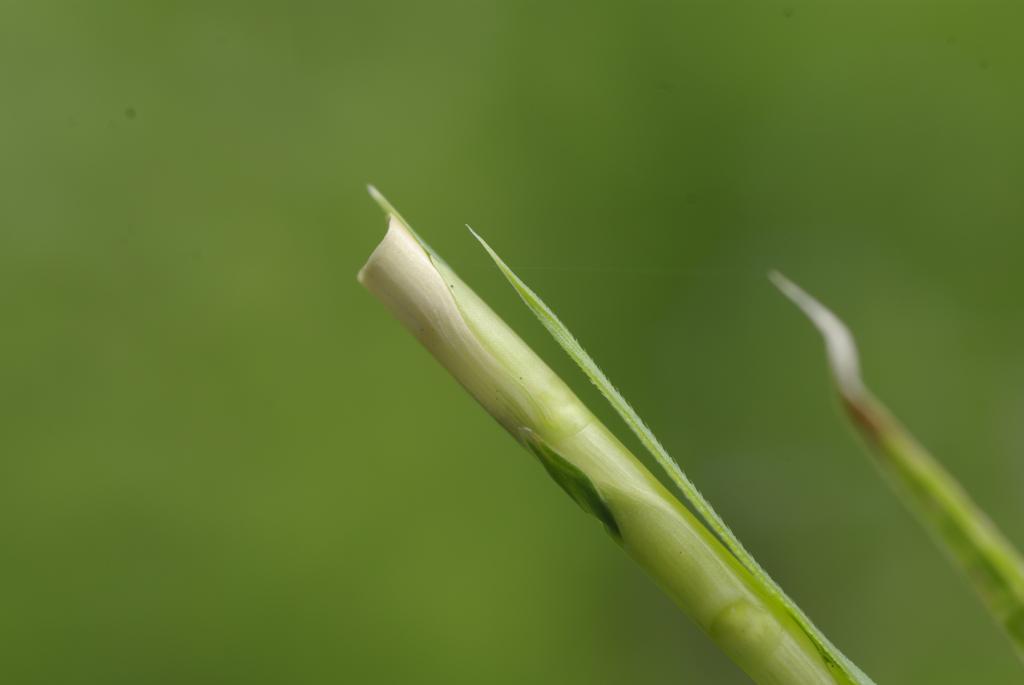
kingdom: Plantae
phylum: Tracheophyta
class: Liliopsida
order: Poales
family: Poaceae
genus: Rottboellia
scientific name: Rottboellia cochinchinensis
